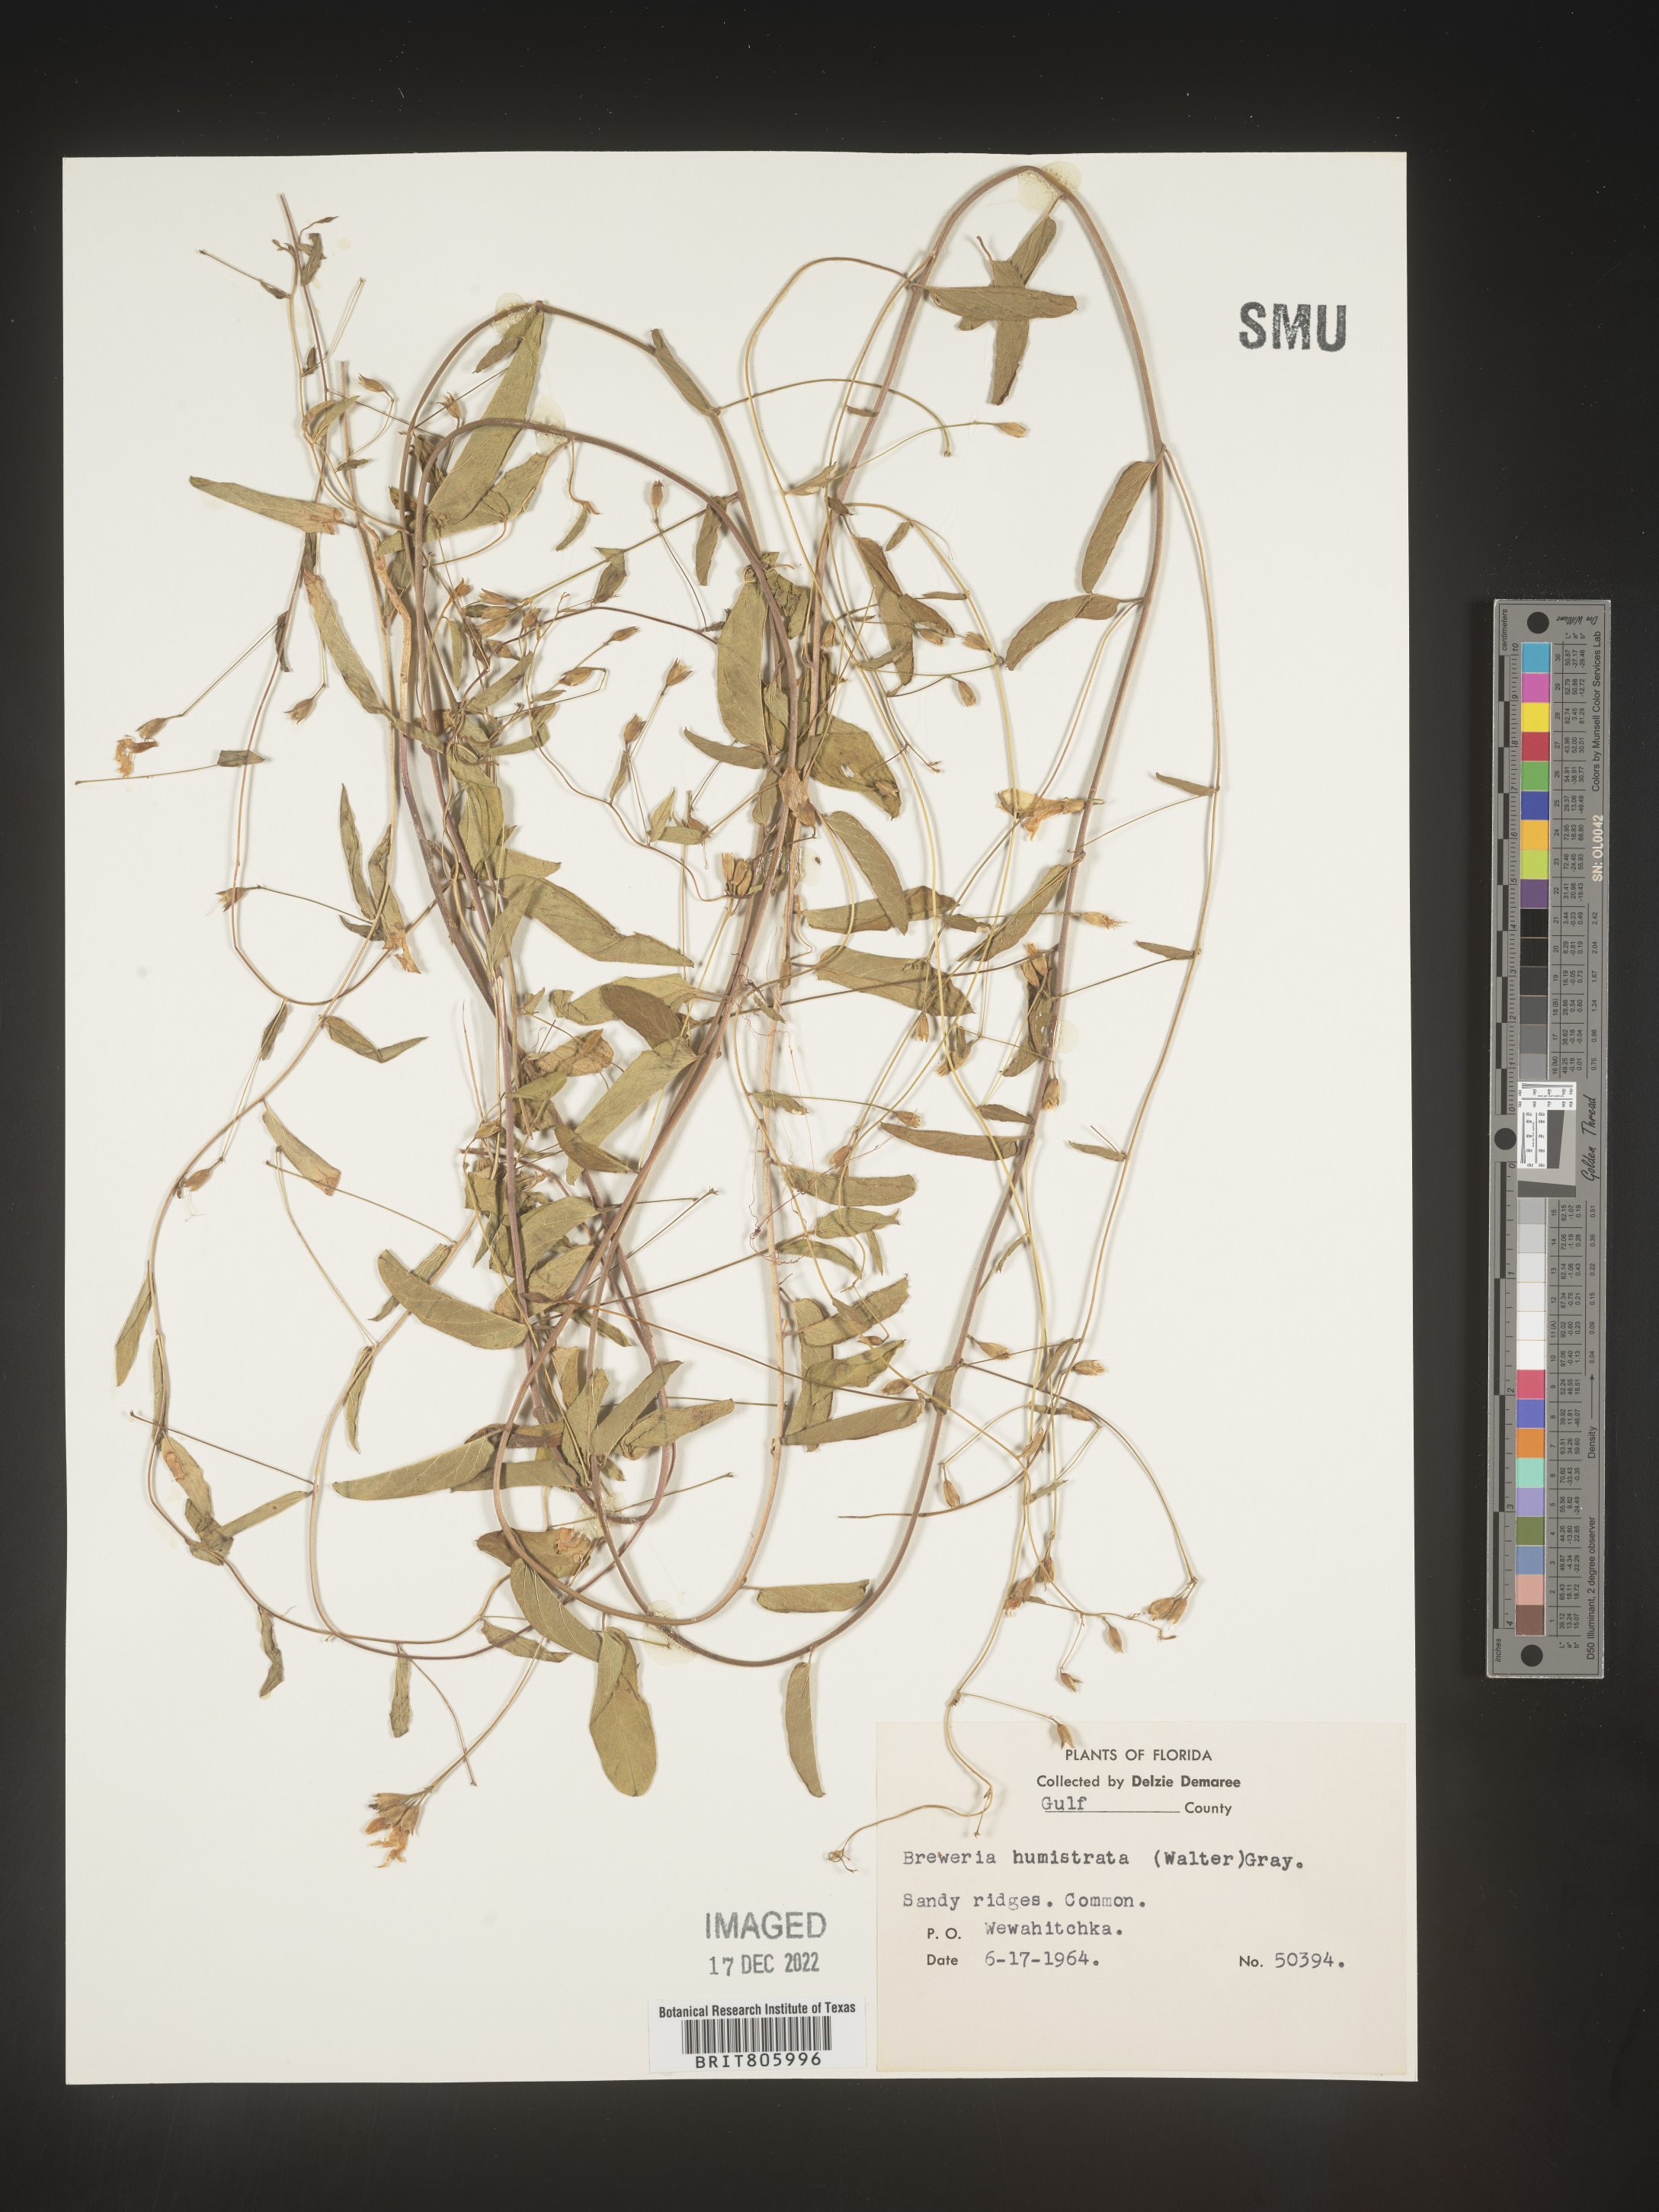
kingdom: Plantae
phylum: Tracheophyta
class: Magnoliopsida
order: Solanales
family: Convolvulaceae
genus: Stylisma
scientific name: Stylisma humistrata
